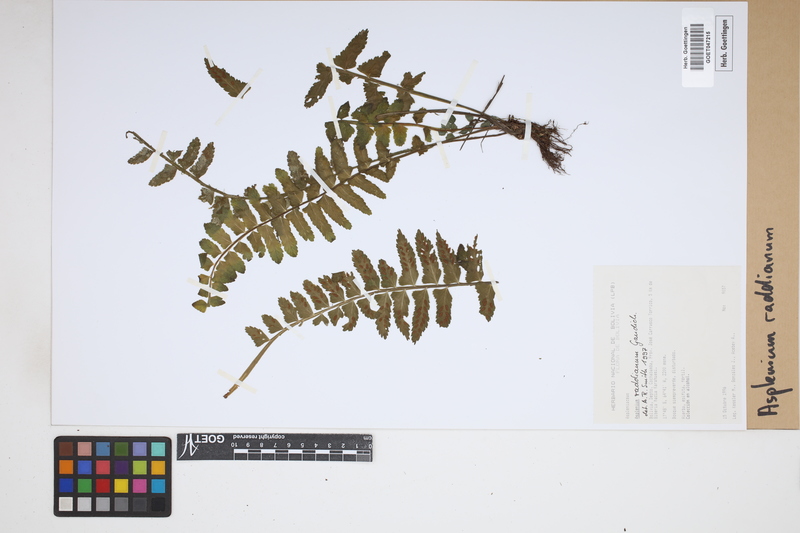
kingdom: Plantae
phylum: Tracheophyta
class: Polypodiopsida
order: Polypodiales
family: Aspleniaceae
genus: Asplenium
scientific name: Asplenium raddianum
